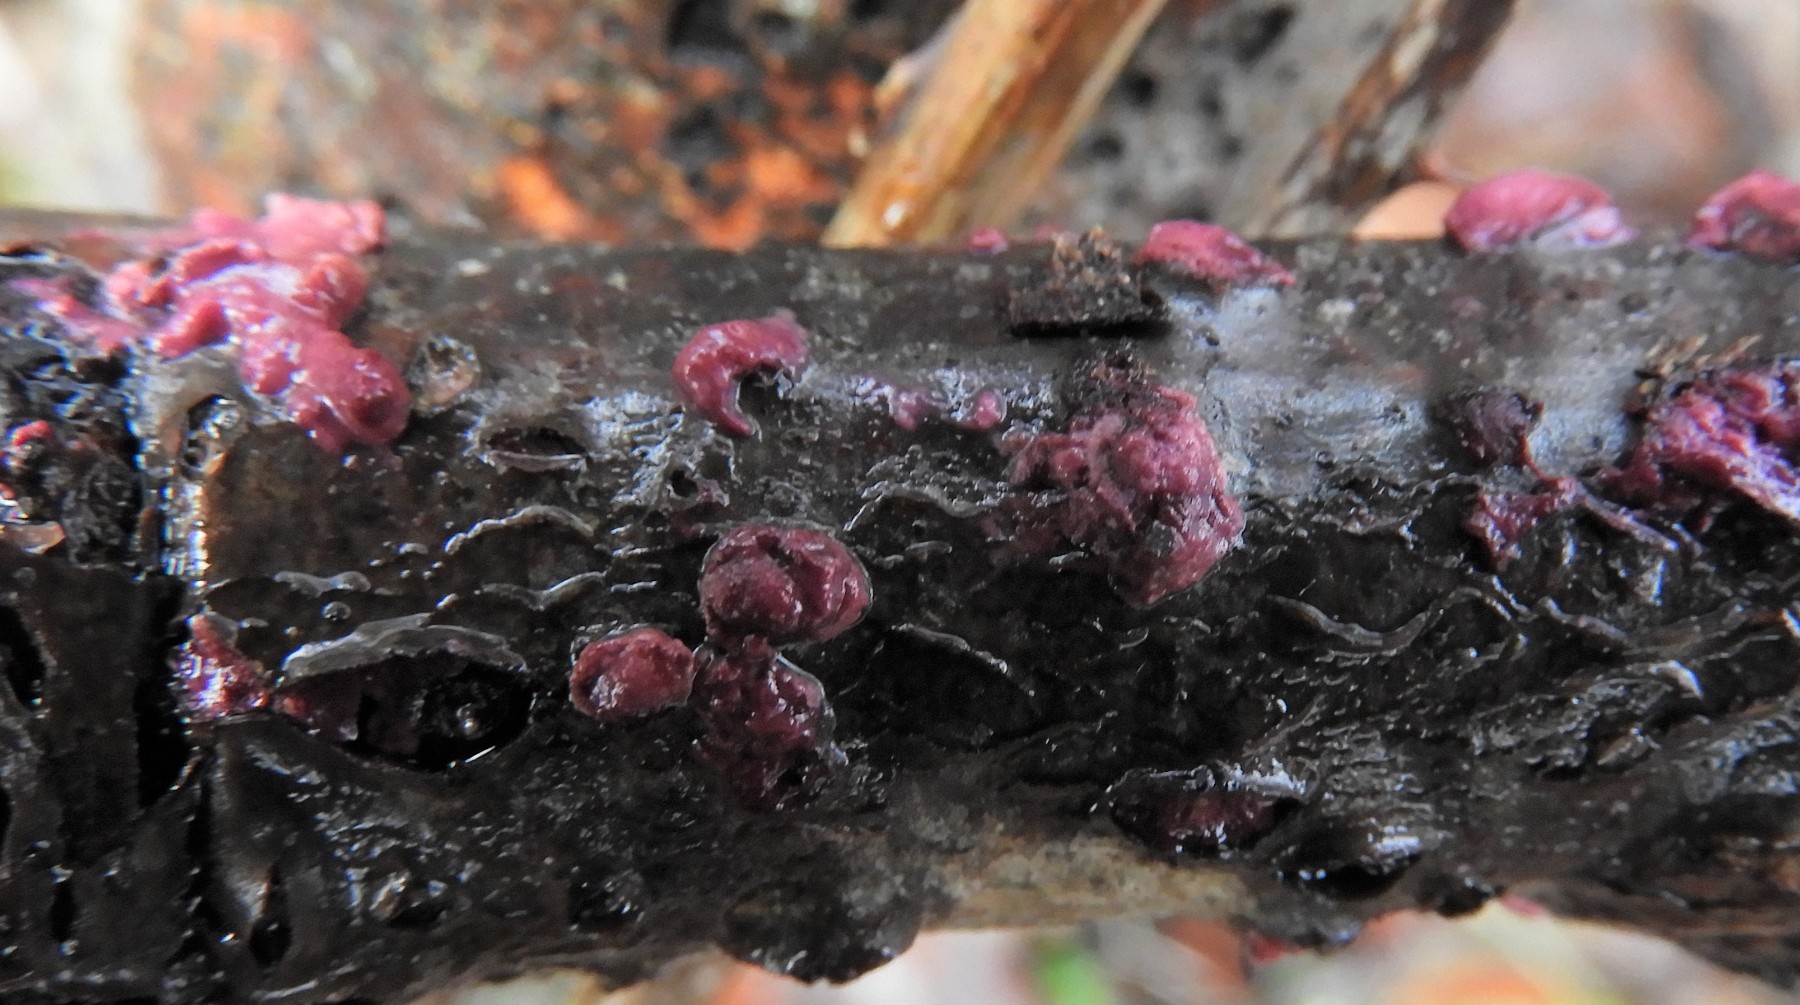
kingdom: Fungi
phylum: Ascomycota
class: Sordariomycetes
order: Hypocreales
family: Hypocreaceae
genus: Trichoderma
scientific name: Trichoderma europaeum
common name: rosabrun kødkerne
